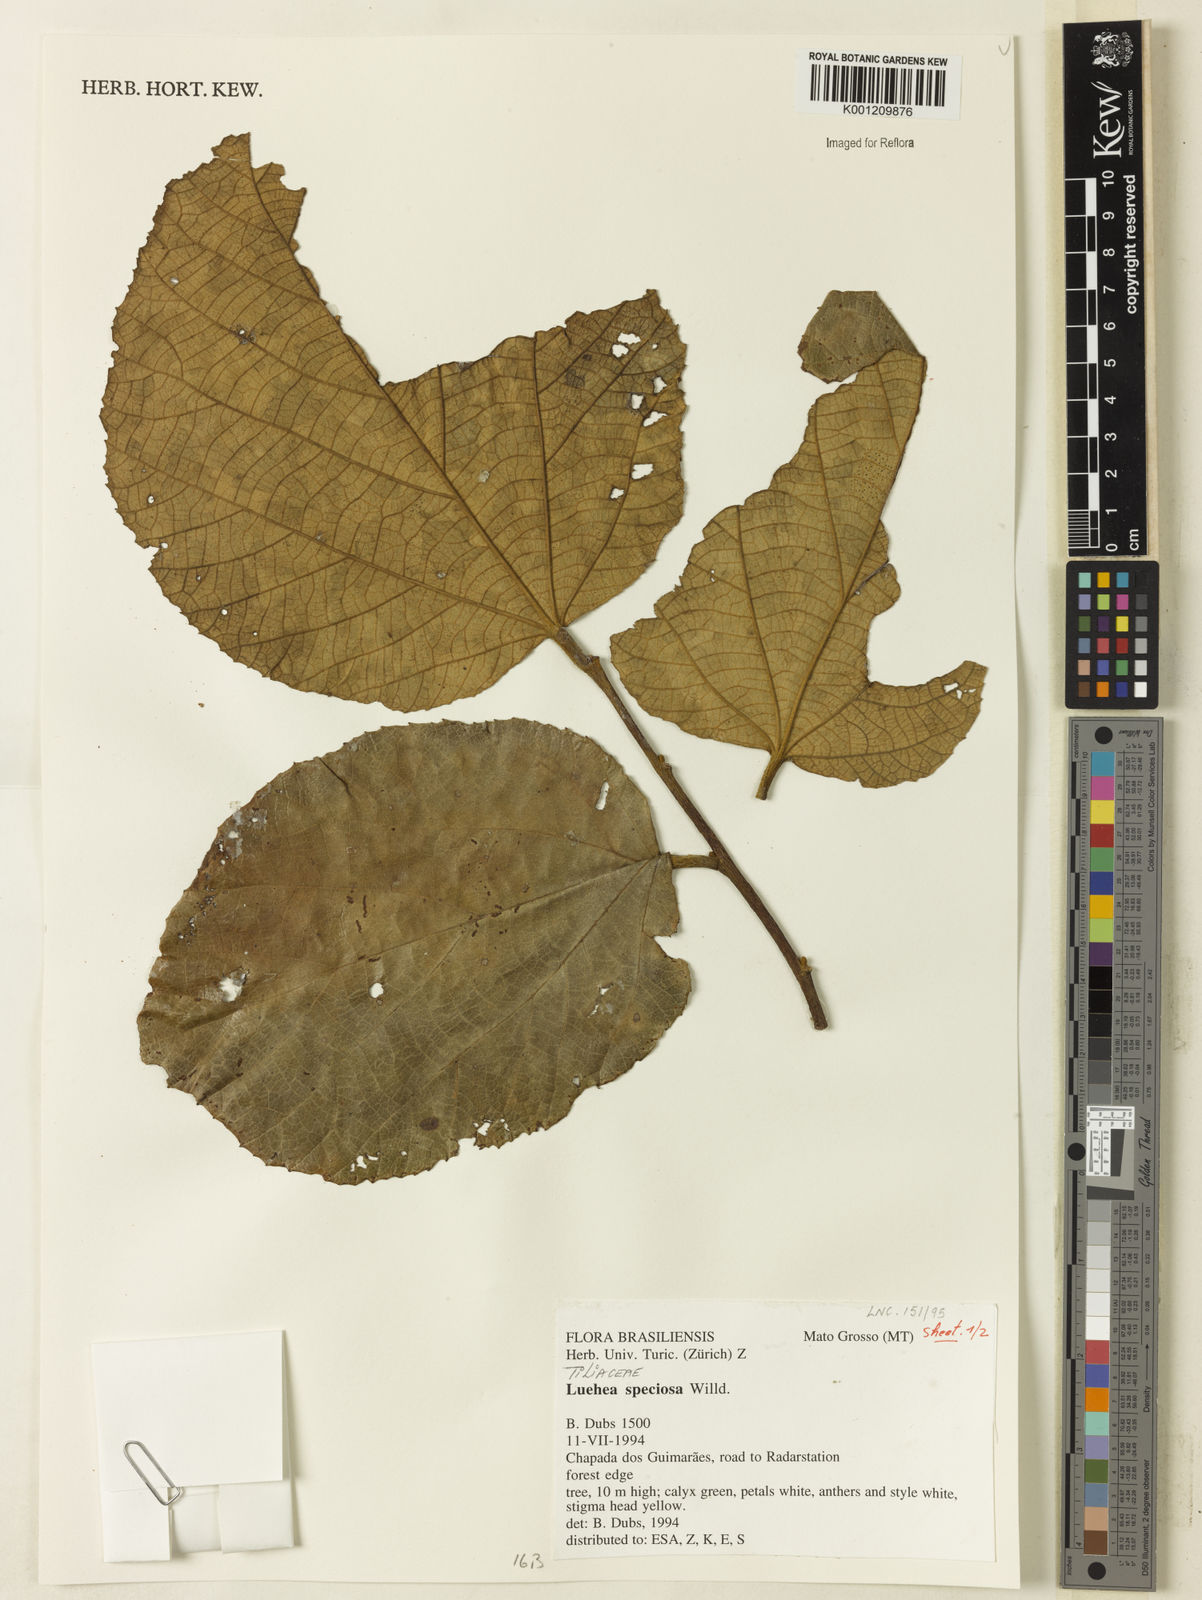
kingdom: Plantae
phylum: Tracheophyta
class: Magnoliopsida
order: Malvales
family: Malvaceae
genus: Luehea
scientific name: Luehea speciosa
